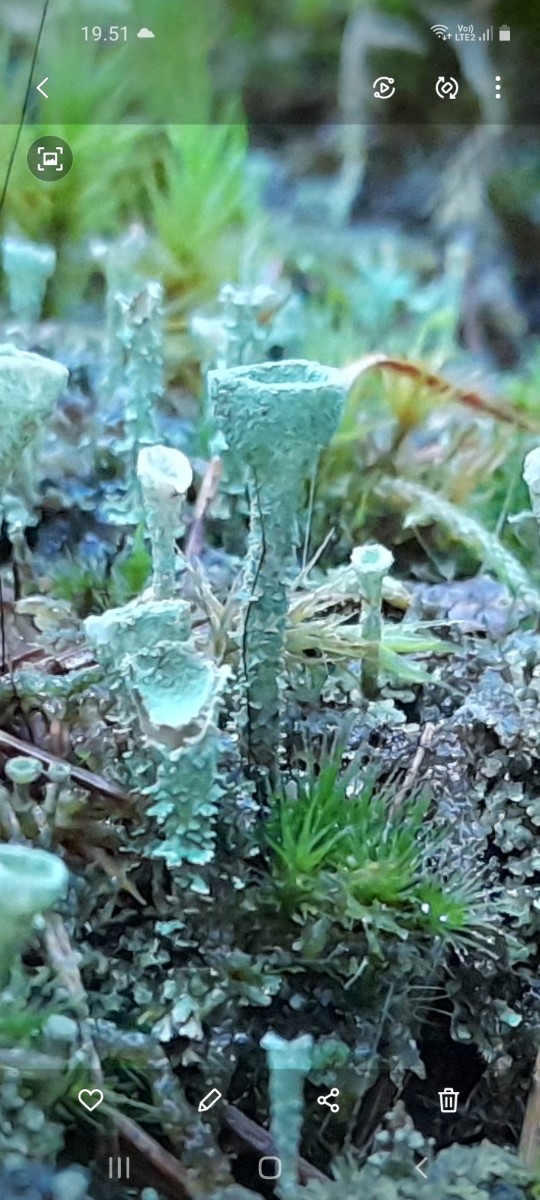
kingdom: Fungi
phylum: Ascomycota
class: Lecanoromycetes
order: Lecanorales
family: Cladoniaceae
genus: Cladonia
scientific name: Cladonia
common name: brungrøn bægerlav
